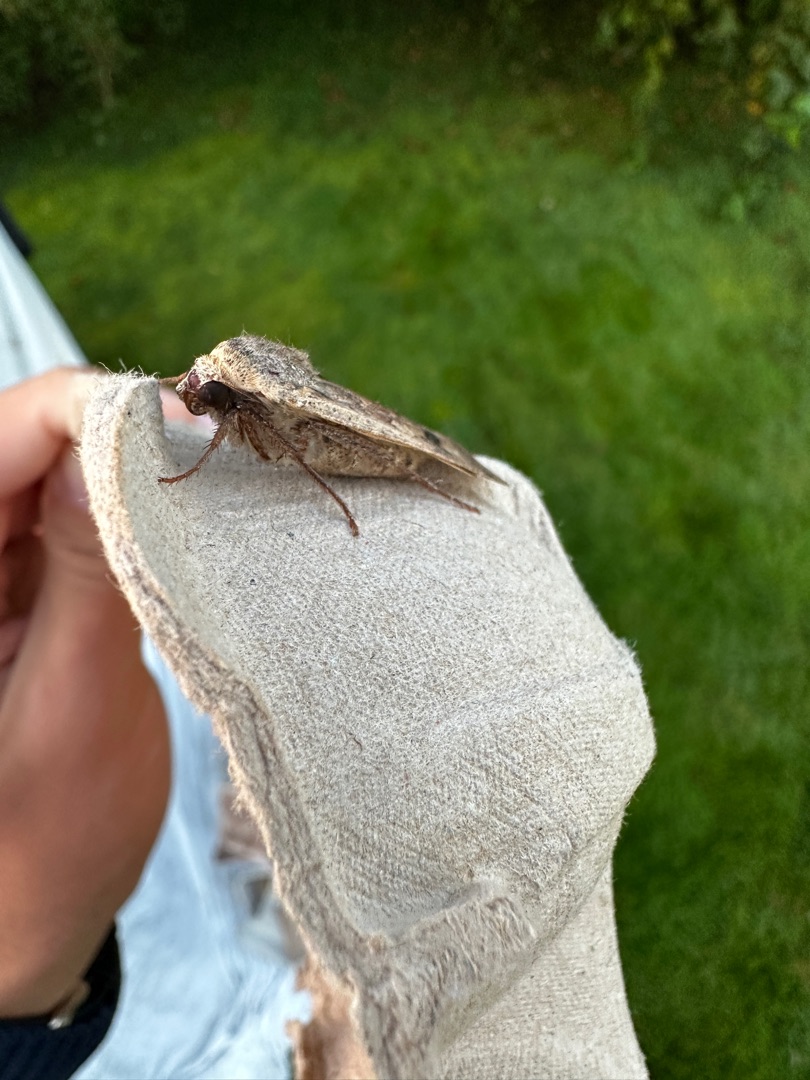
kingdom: Animalia
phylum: Arthropoda
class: Insecta
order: Lepidoptera
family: Noctuidae
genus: Noctua
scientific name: Noctua pronuba
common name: Stor smutugle
